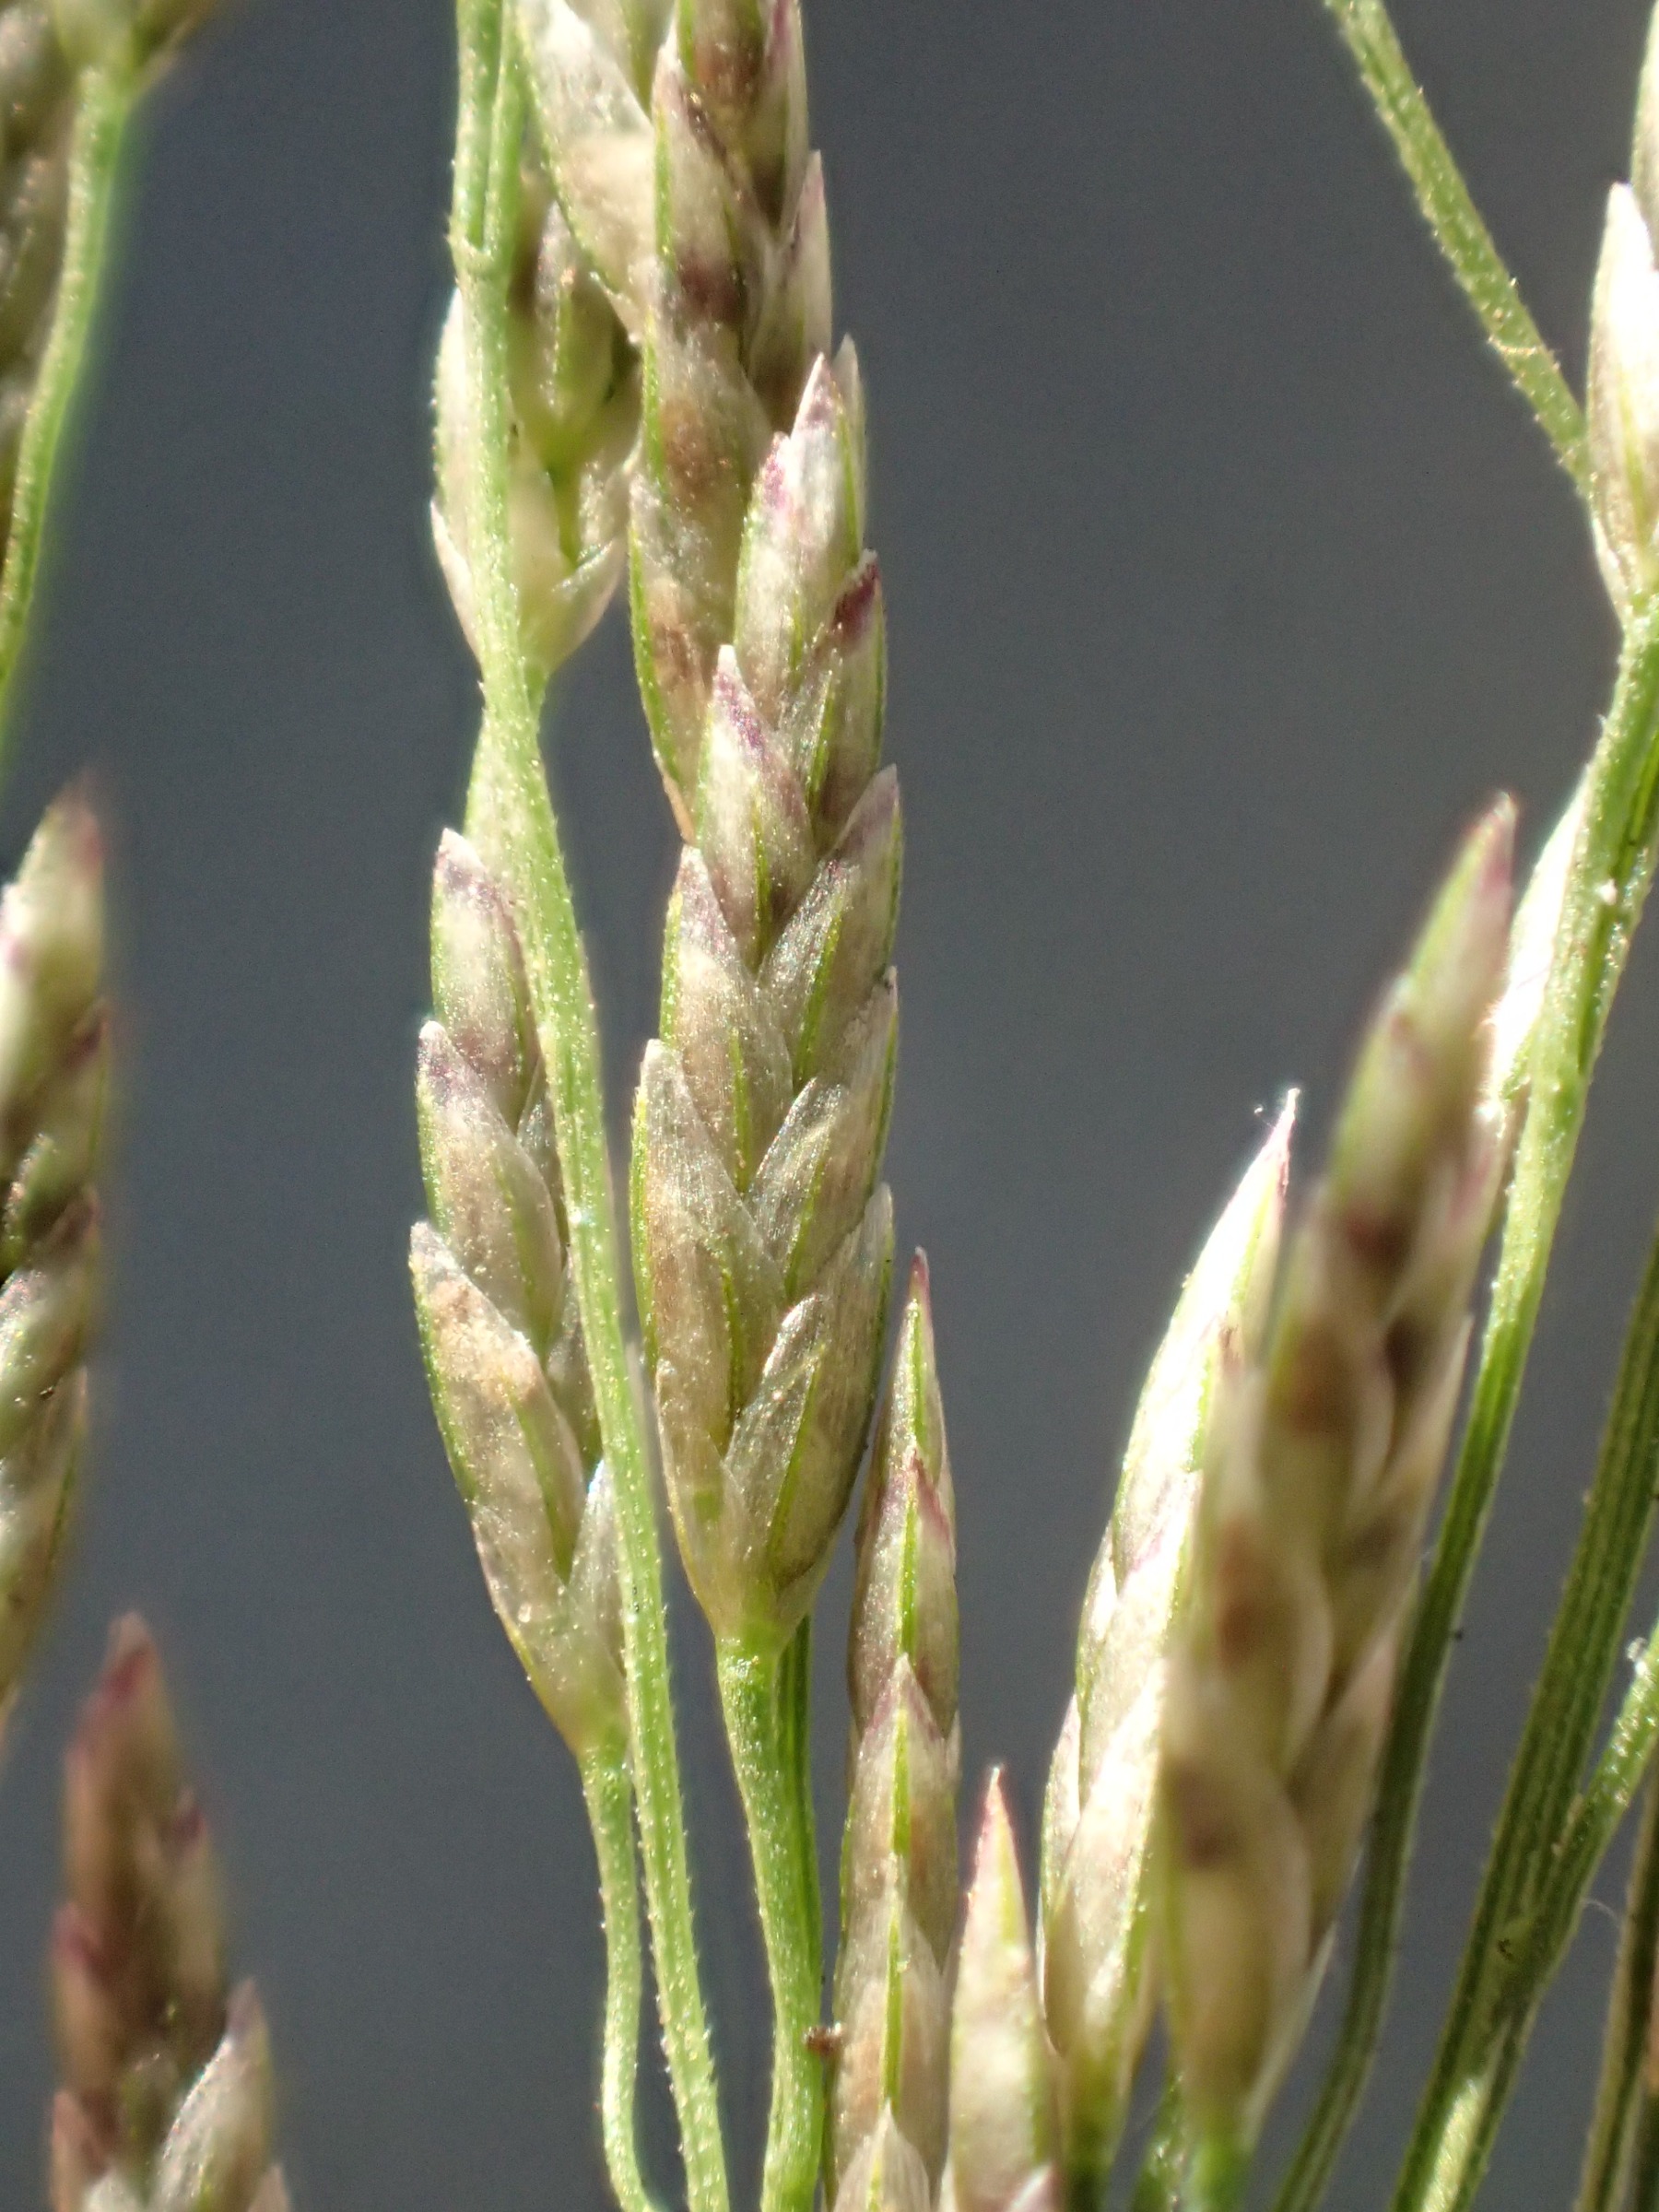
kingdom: Plantae
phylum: Tracheophyta
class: Liliopsida
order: Poales
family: Poaceae
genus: Eragrostis
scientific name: Eragrostis virescens
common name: Argentinsk kærlighedsgræs
